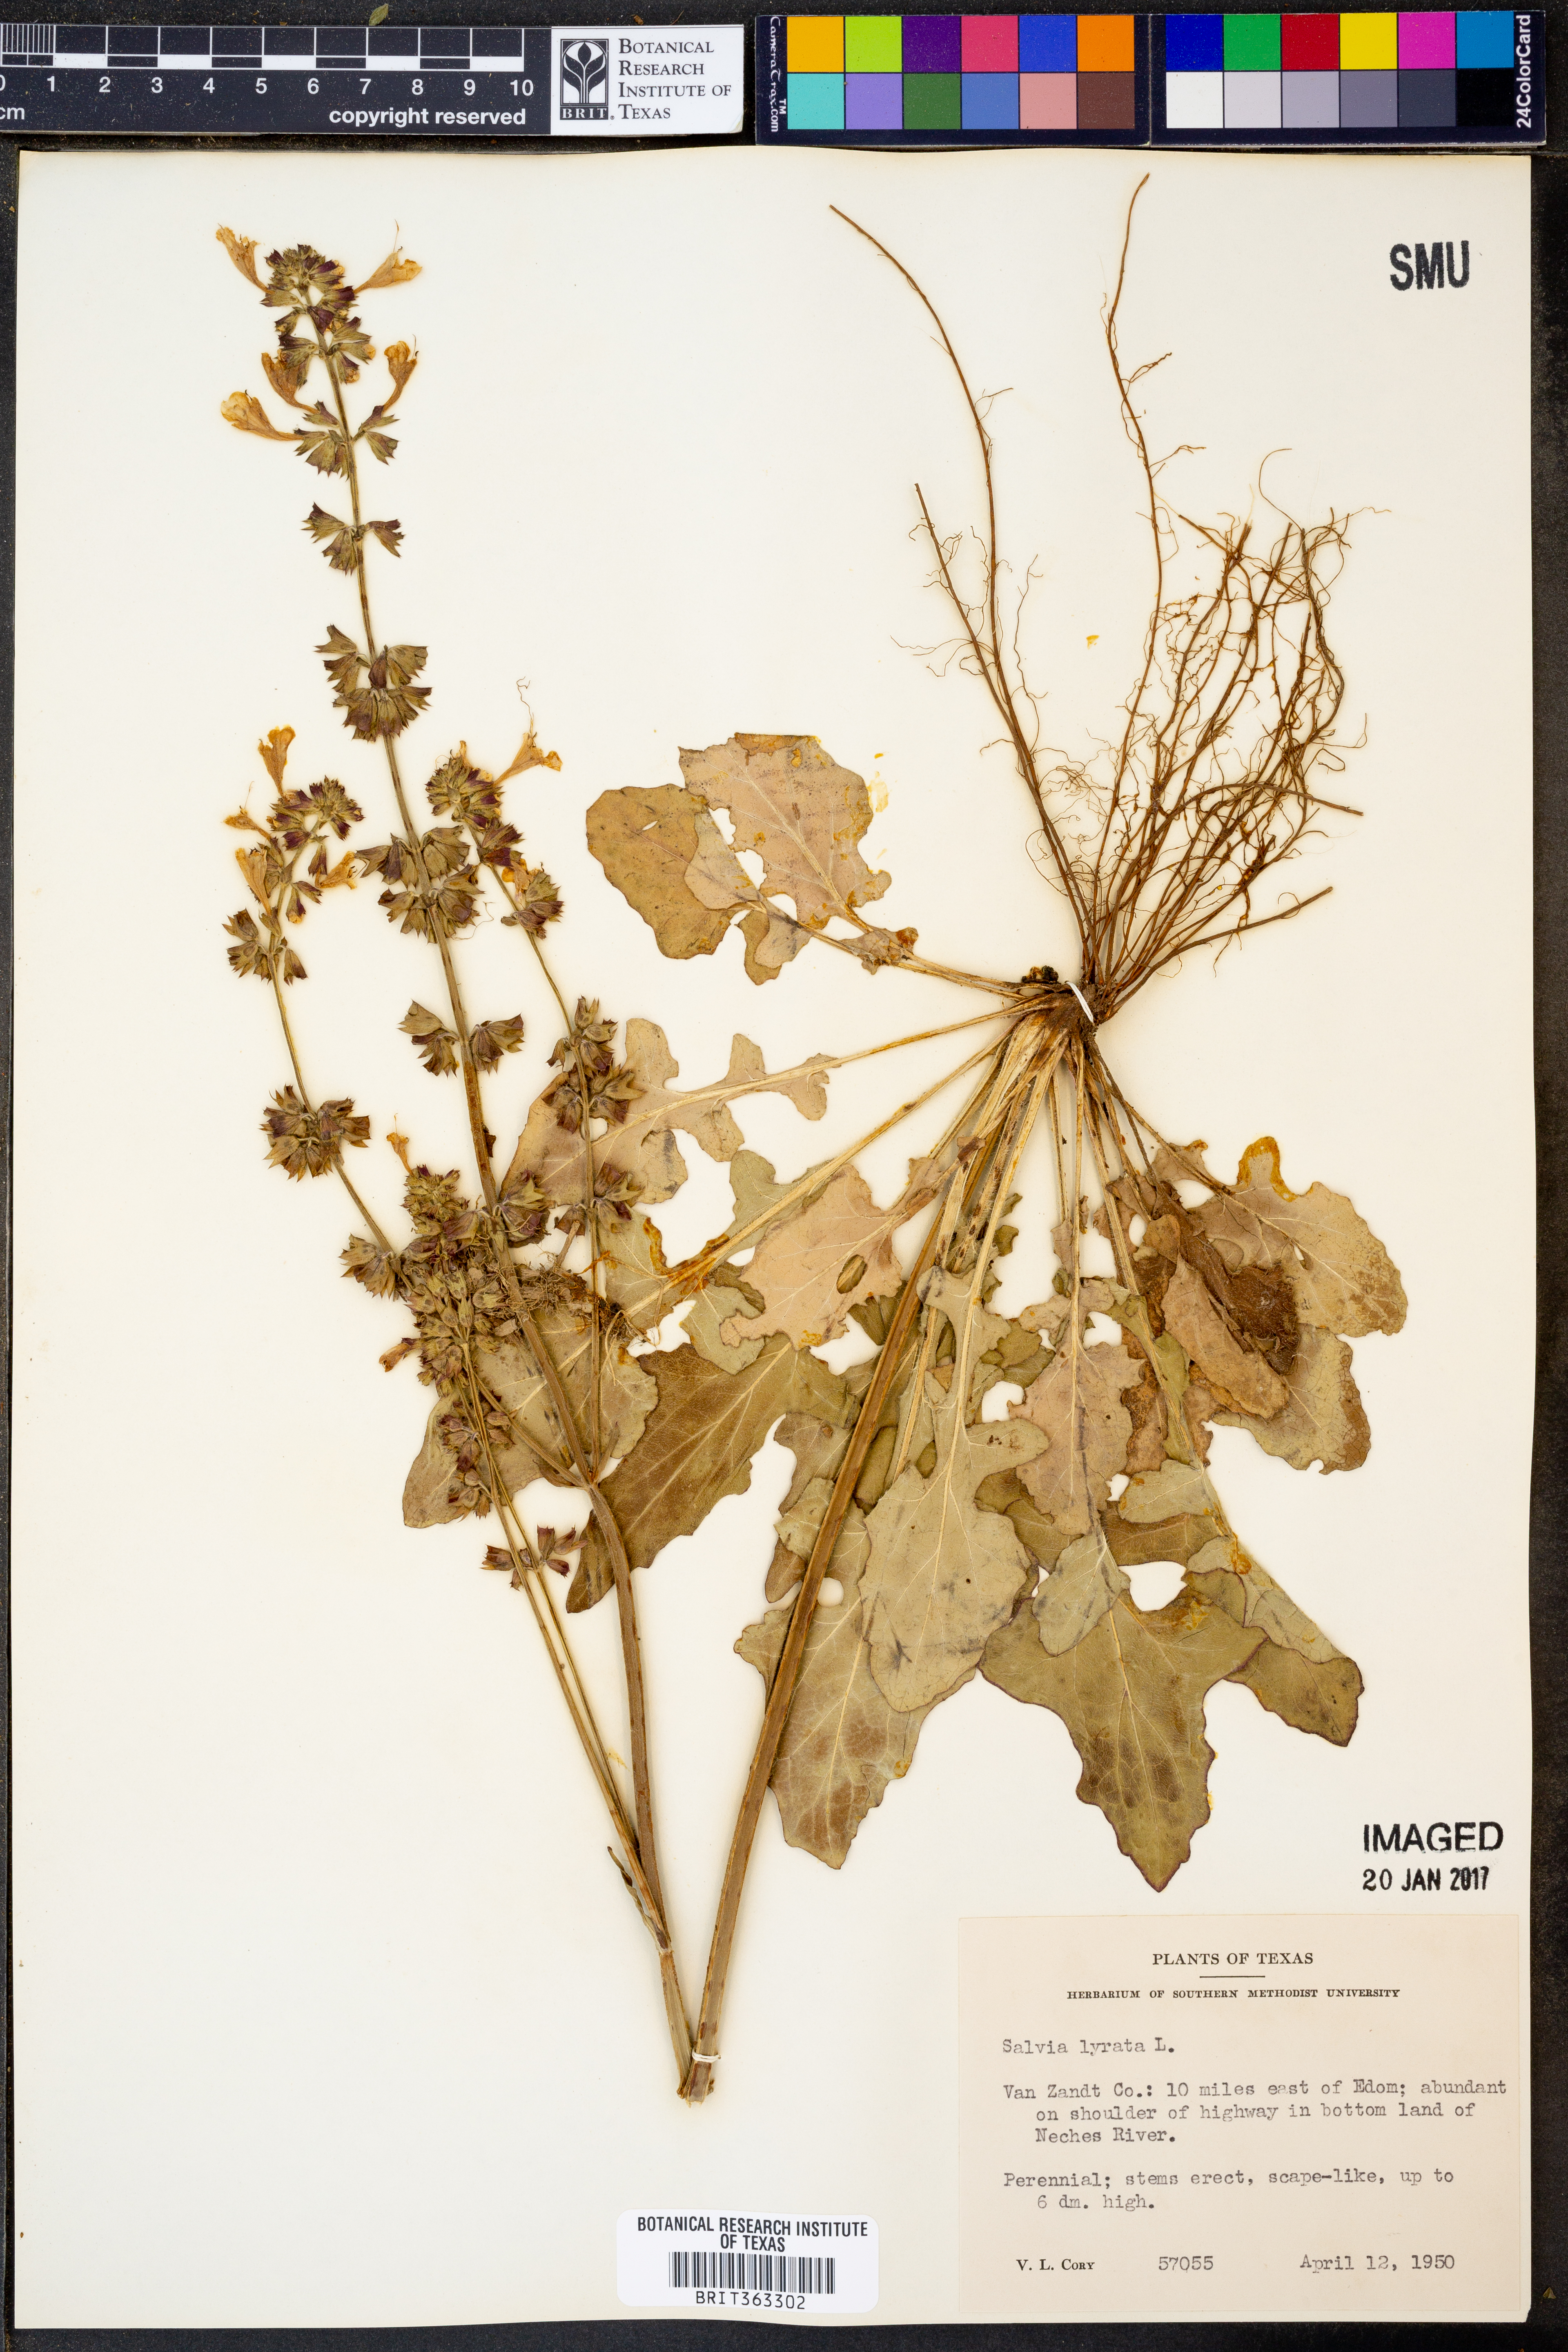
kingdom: Plantae
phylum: Tracheophyta
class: Magnoliopsida
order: Lamiales
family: Lamiaceae
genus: Salvia
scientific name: Salvia lyrata
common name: Cancerweed
